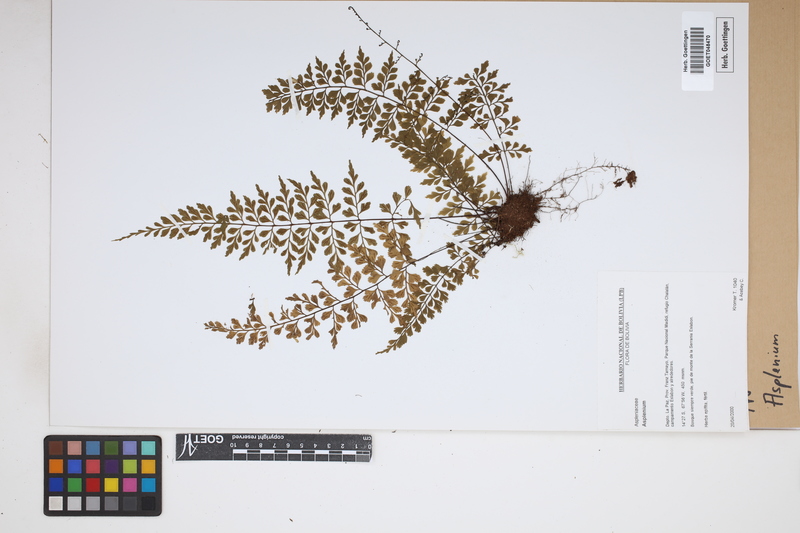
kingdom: Plantae
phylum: Tracheophyta
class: Polypodiopsida
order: Polypodiales
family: Aspleniaceae
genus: Asplenium
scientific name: Asplenium
